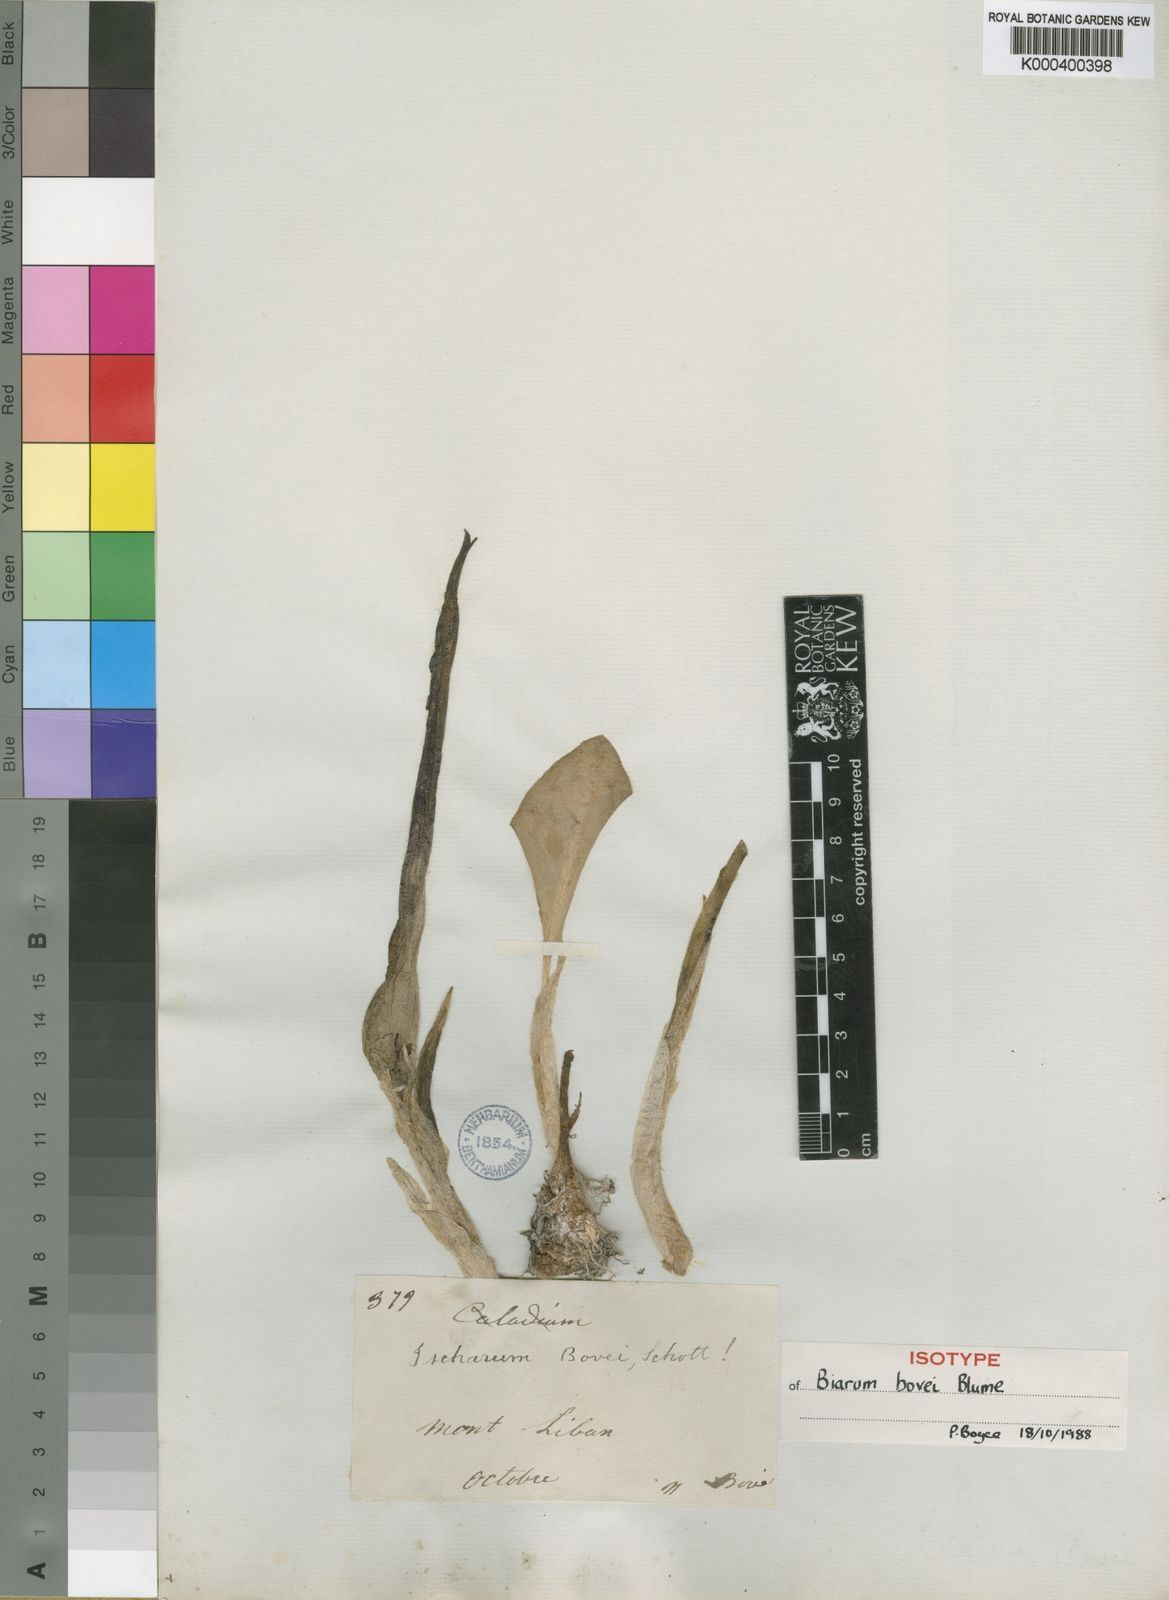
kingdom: Plantae
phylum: Tracheophyta
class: Liliopsida
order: Alismatales
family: Araceae
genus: Biarum
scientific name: Biarum bovei
